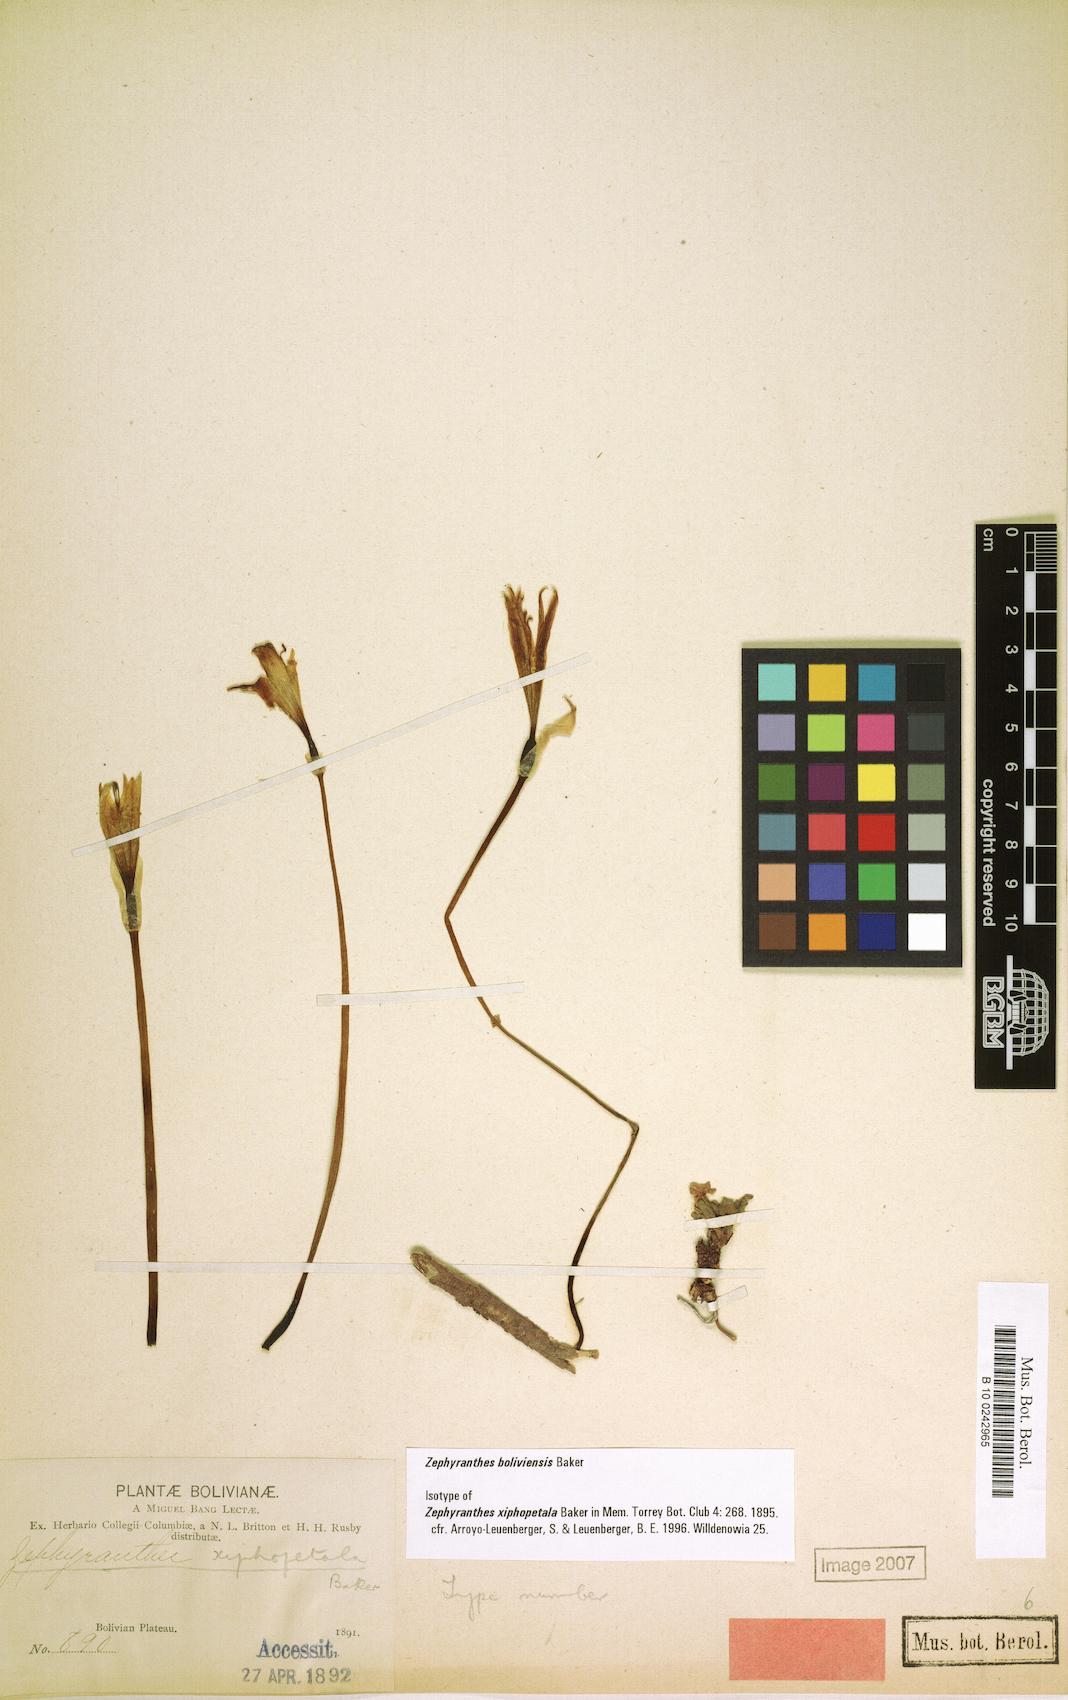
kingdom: Plantae
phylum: Tracheophyta
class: Liliopsida
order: Asparagales
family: Amaryllidaceae
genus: Pyrolirion
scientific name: Pyrolirion boliviense
